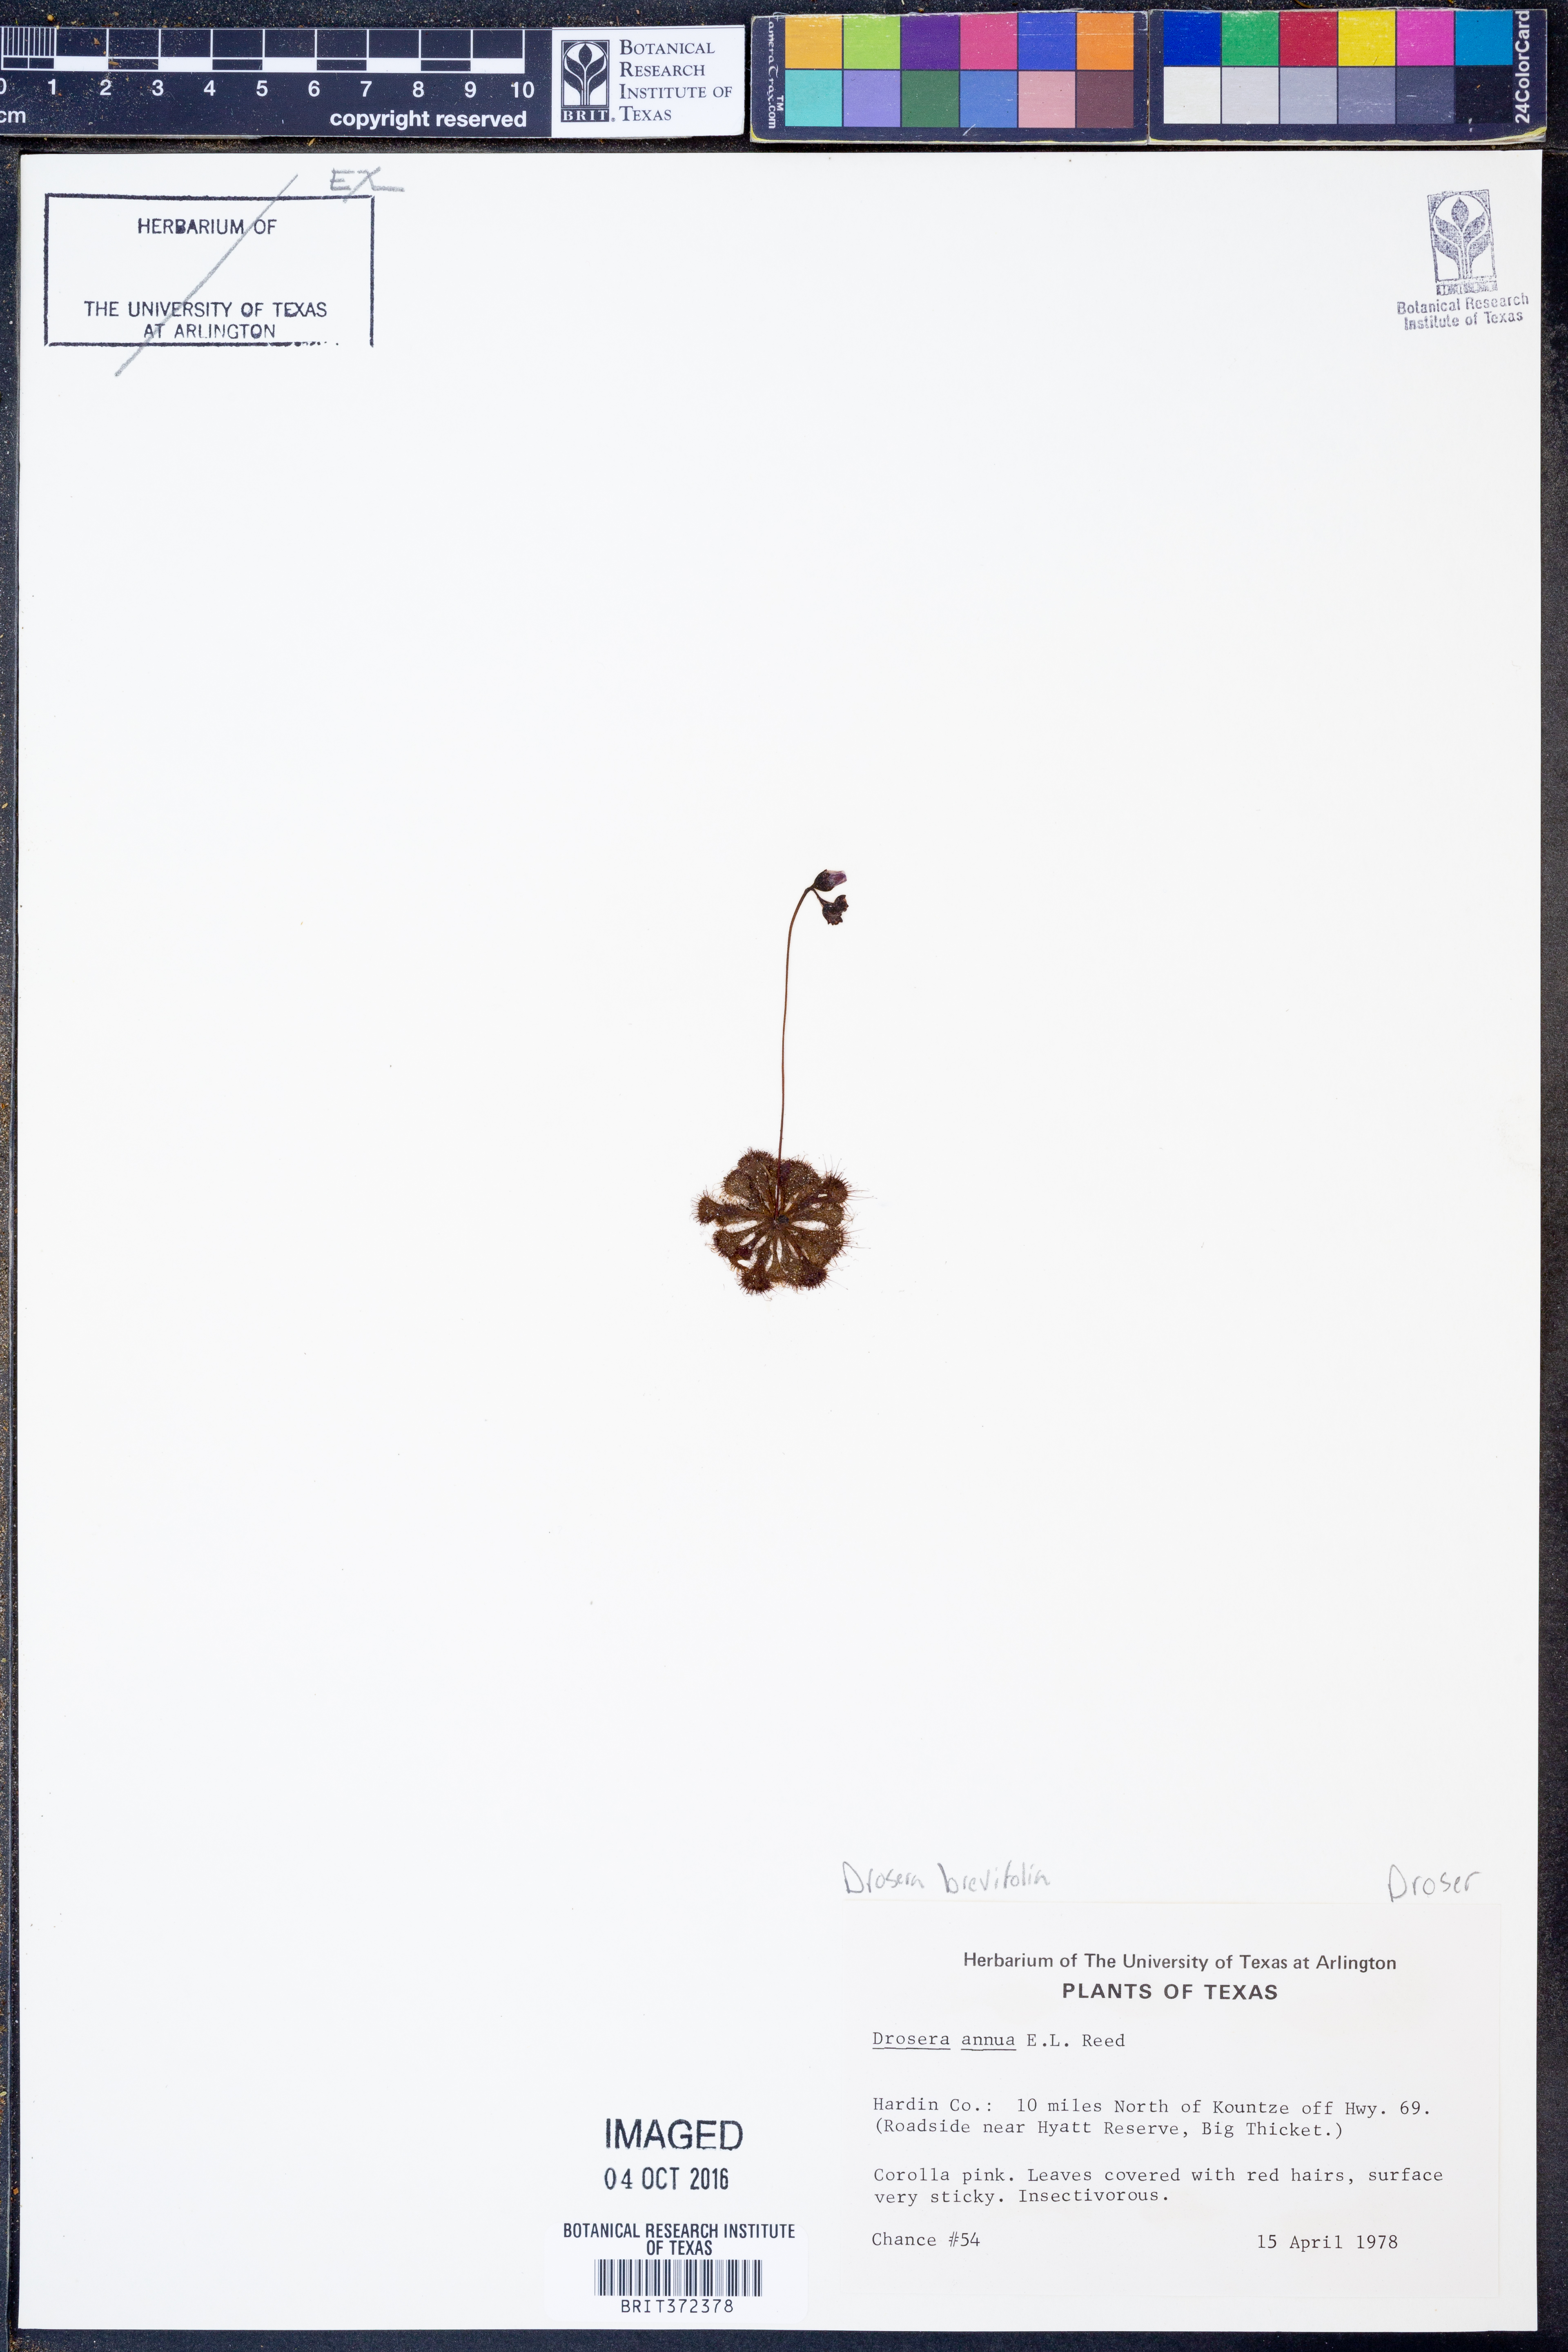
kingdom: Plantae
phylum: Tracheophyta
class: Magnoliopsida
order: Caryophyllales
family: Droseraceae
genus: Drosera
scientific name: Drosera brevifolia
